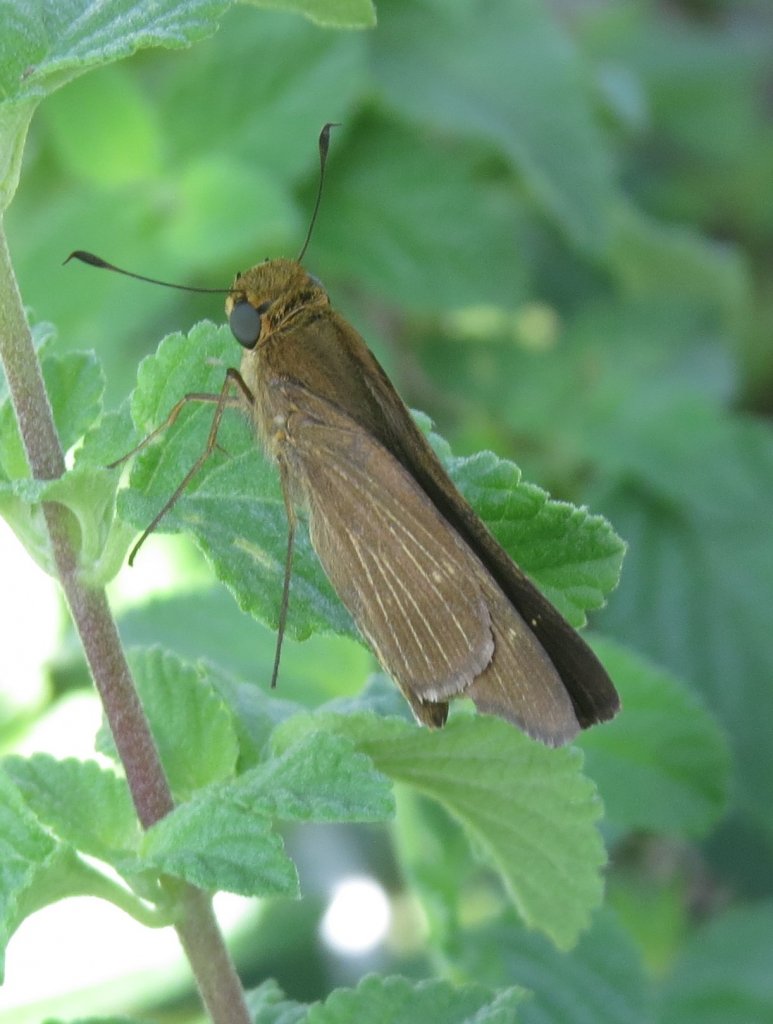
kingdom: Animalia
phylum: Arthropoda
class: Insecta
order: Lepidoptera
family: Hesperiidae
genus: Panoquina
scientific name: Panoquina ocola
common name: Ocola Skipper
